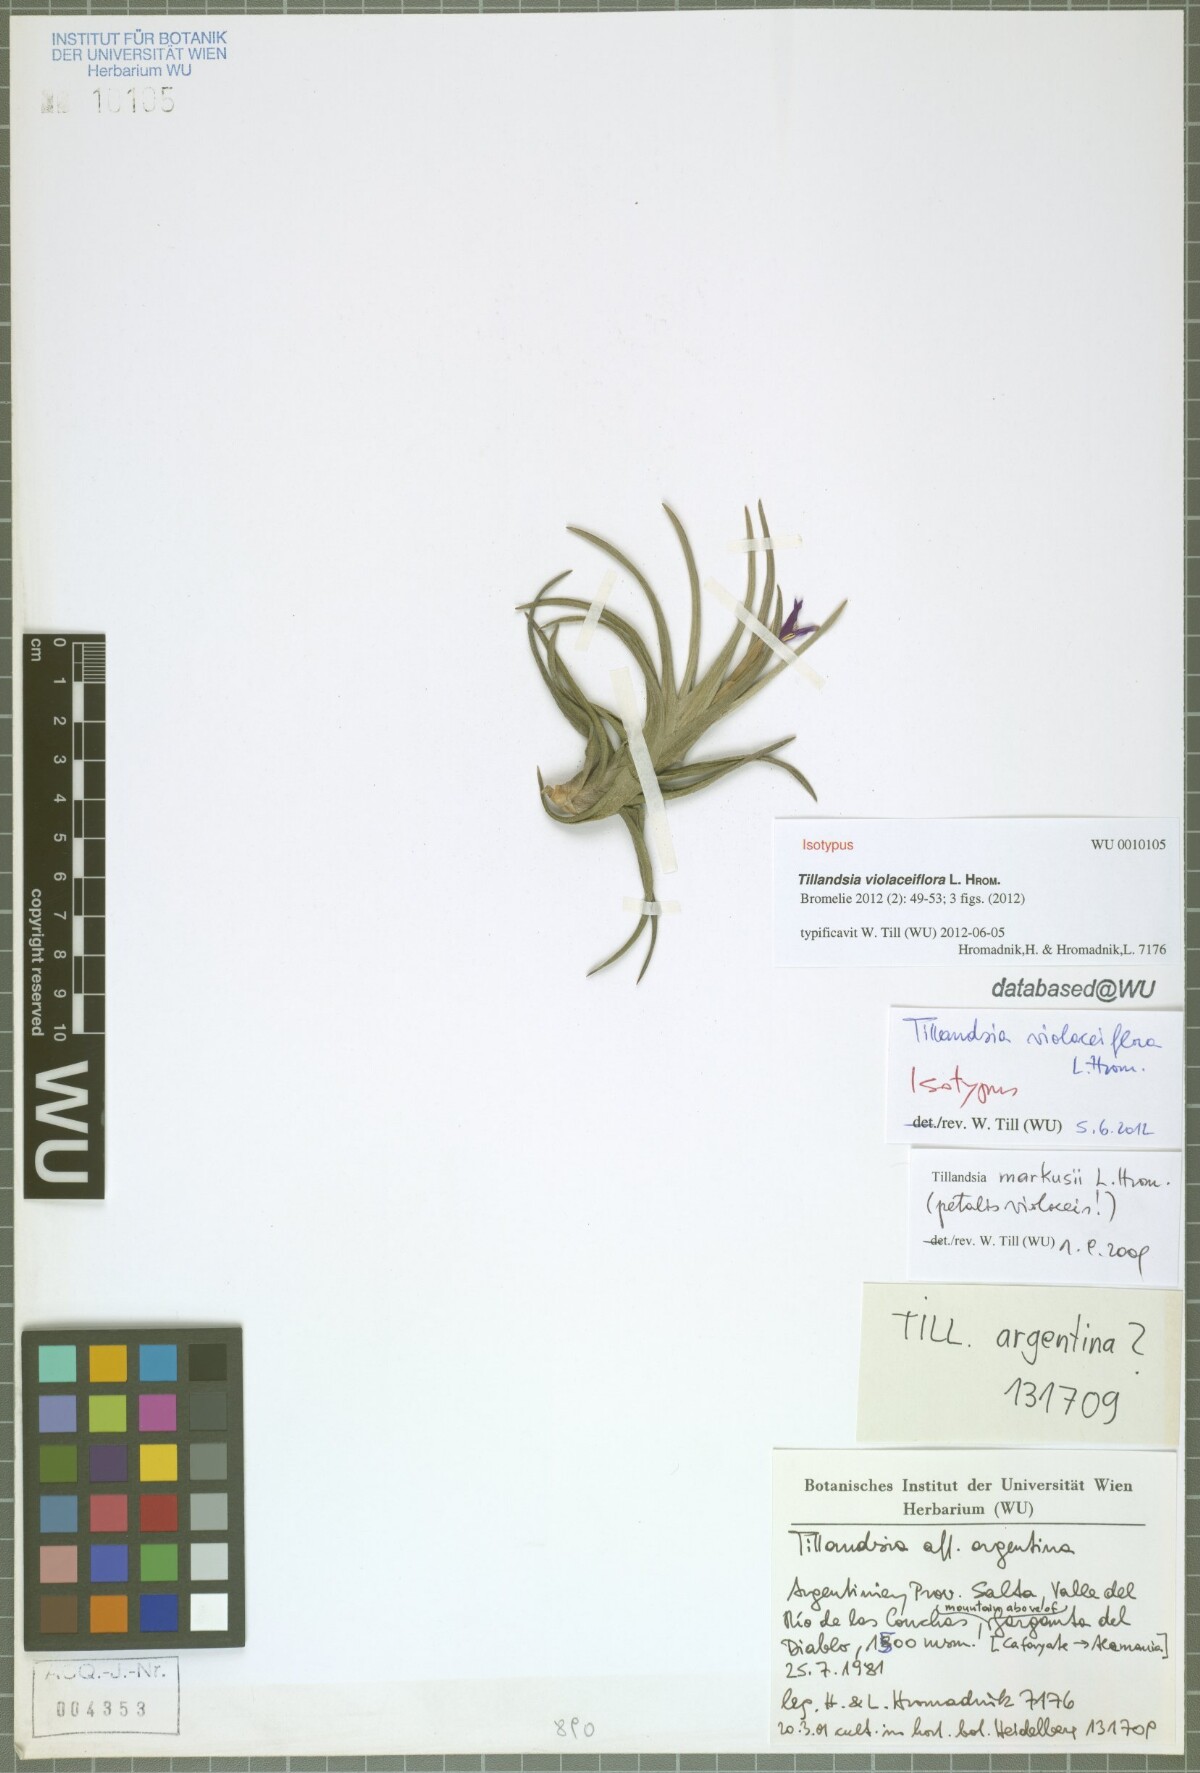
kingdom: Plantae
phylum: Tracheophyta
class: Liliopsida
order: Poales
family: Bromeliaceae
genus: Tillandsia
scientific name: Tillandsia violaceiflora
